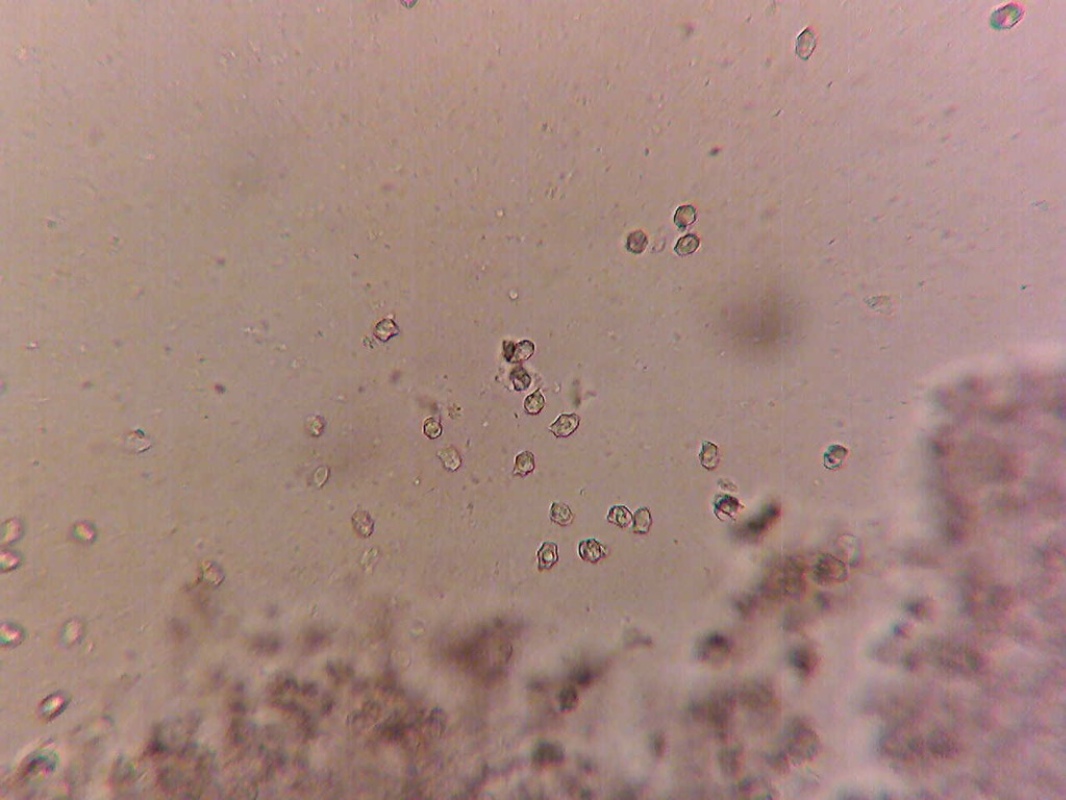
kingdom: Fungi
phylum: Basidiomycota
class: Agaricomycetes
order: Agaricales
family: Entolomataceae
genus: Entoloma
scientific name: Entoloma
